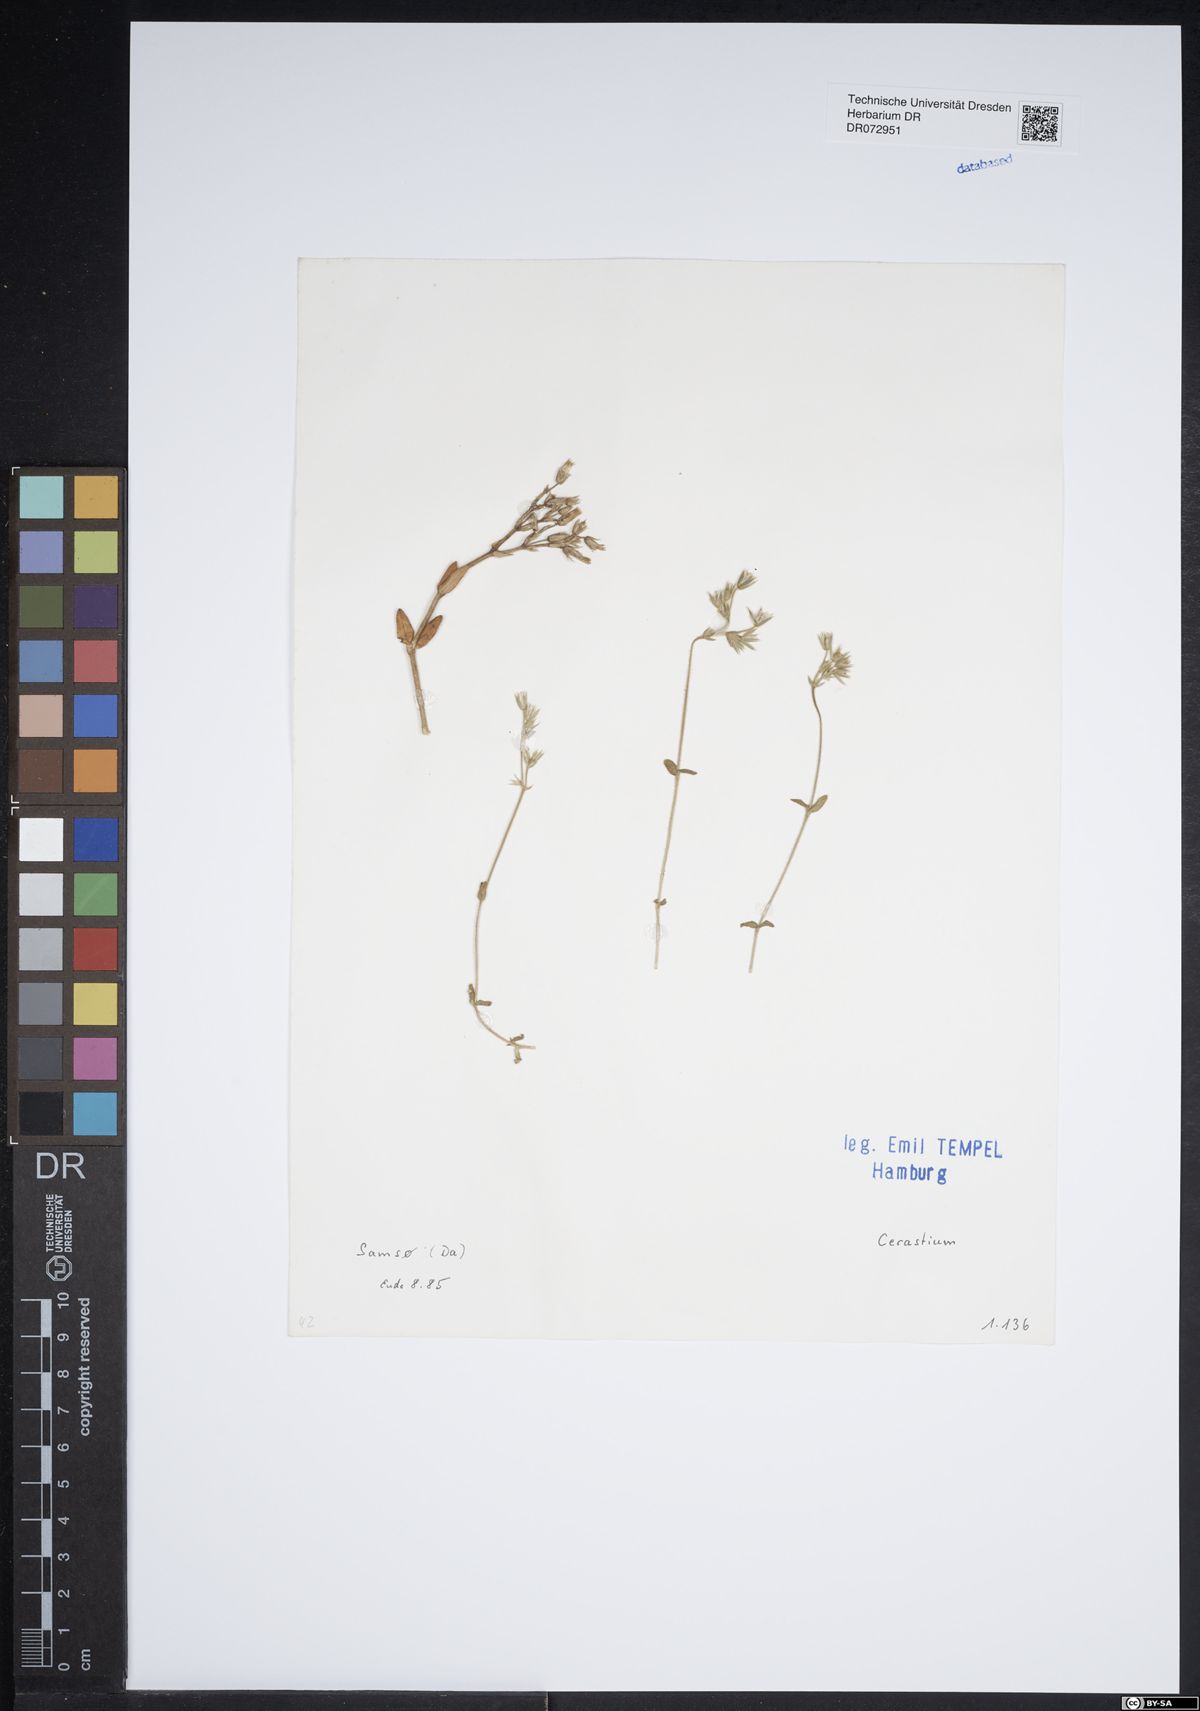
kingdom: Plantae
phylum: Tracheophyta
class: Magnoliopsida
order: Caryophyllales
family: Caryophyllaceae
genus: Cerastium
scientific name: Cerastium
